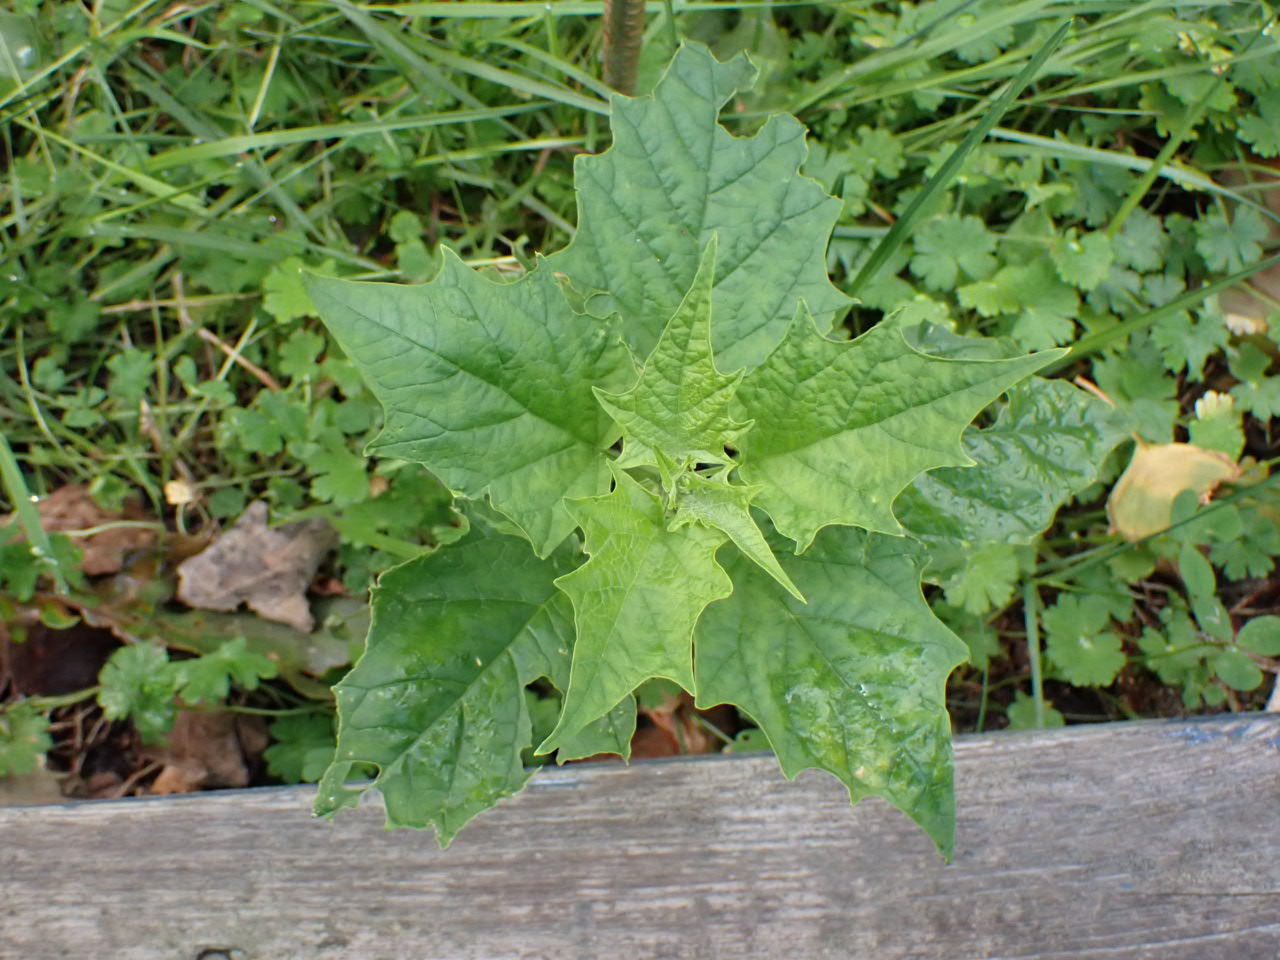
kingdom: Plantae
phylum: Tracheophyta
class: Magnoliopsida
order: Caryophyllales
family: Amaranthaceae
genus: Chenopodiastrum
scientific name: Chenopodiastrum hybridum
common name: Hjertebladet gåsefod
